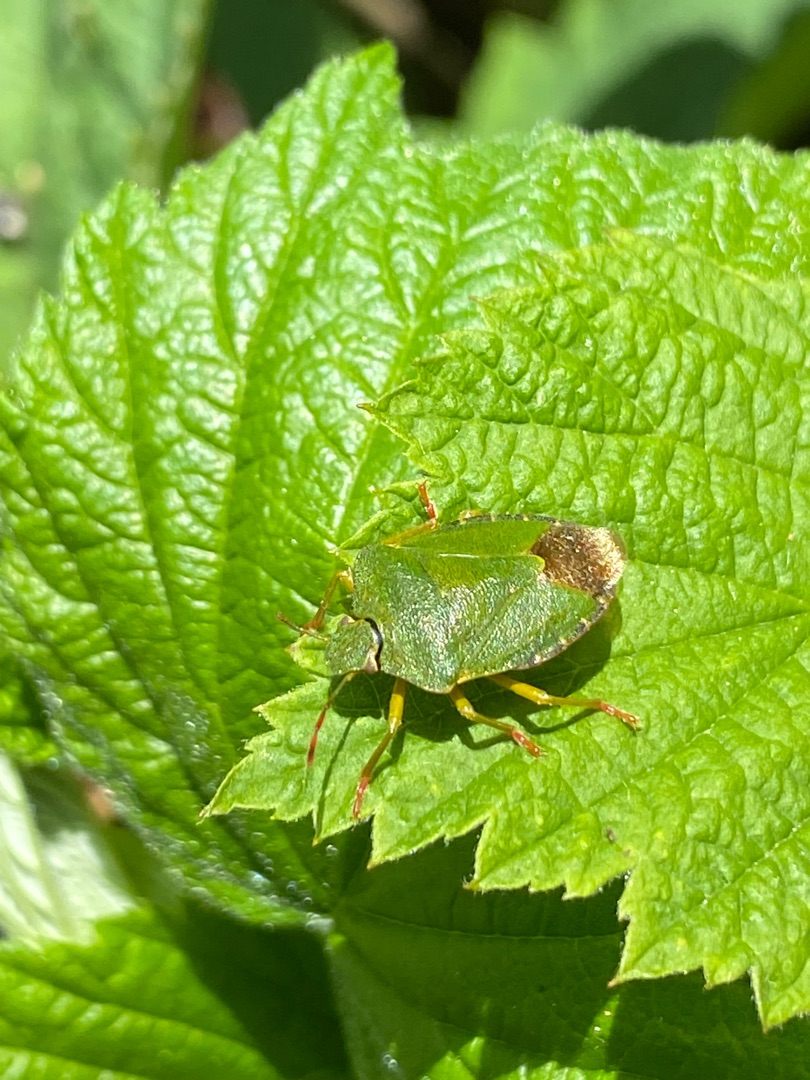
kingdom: Animalia
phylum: Arthropoda
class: Insecta
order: Hemiptera
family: Pentatomidae
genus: Palomena
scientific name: Palomena prasina
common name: Grøn bredtæge
